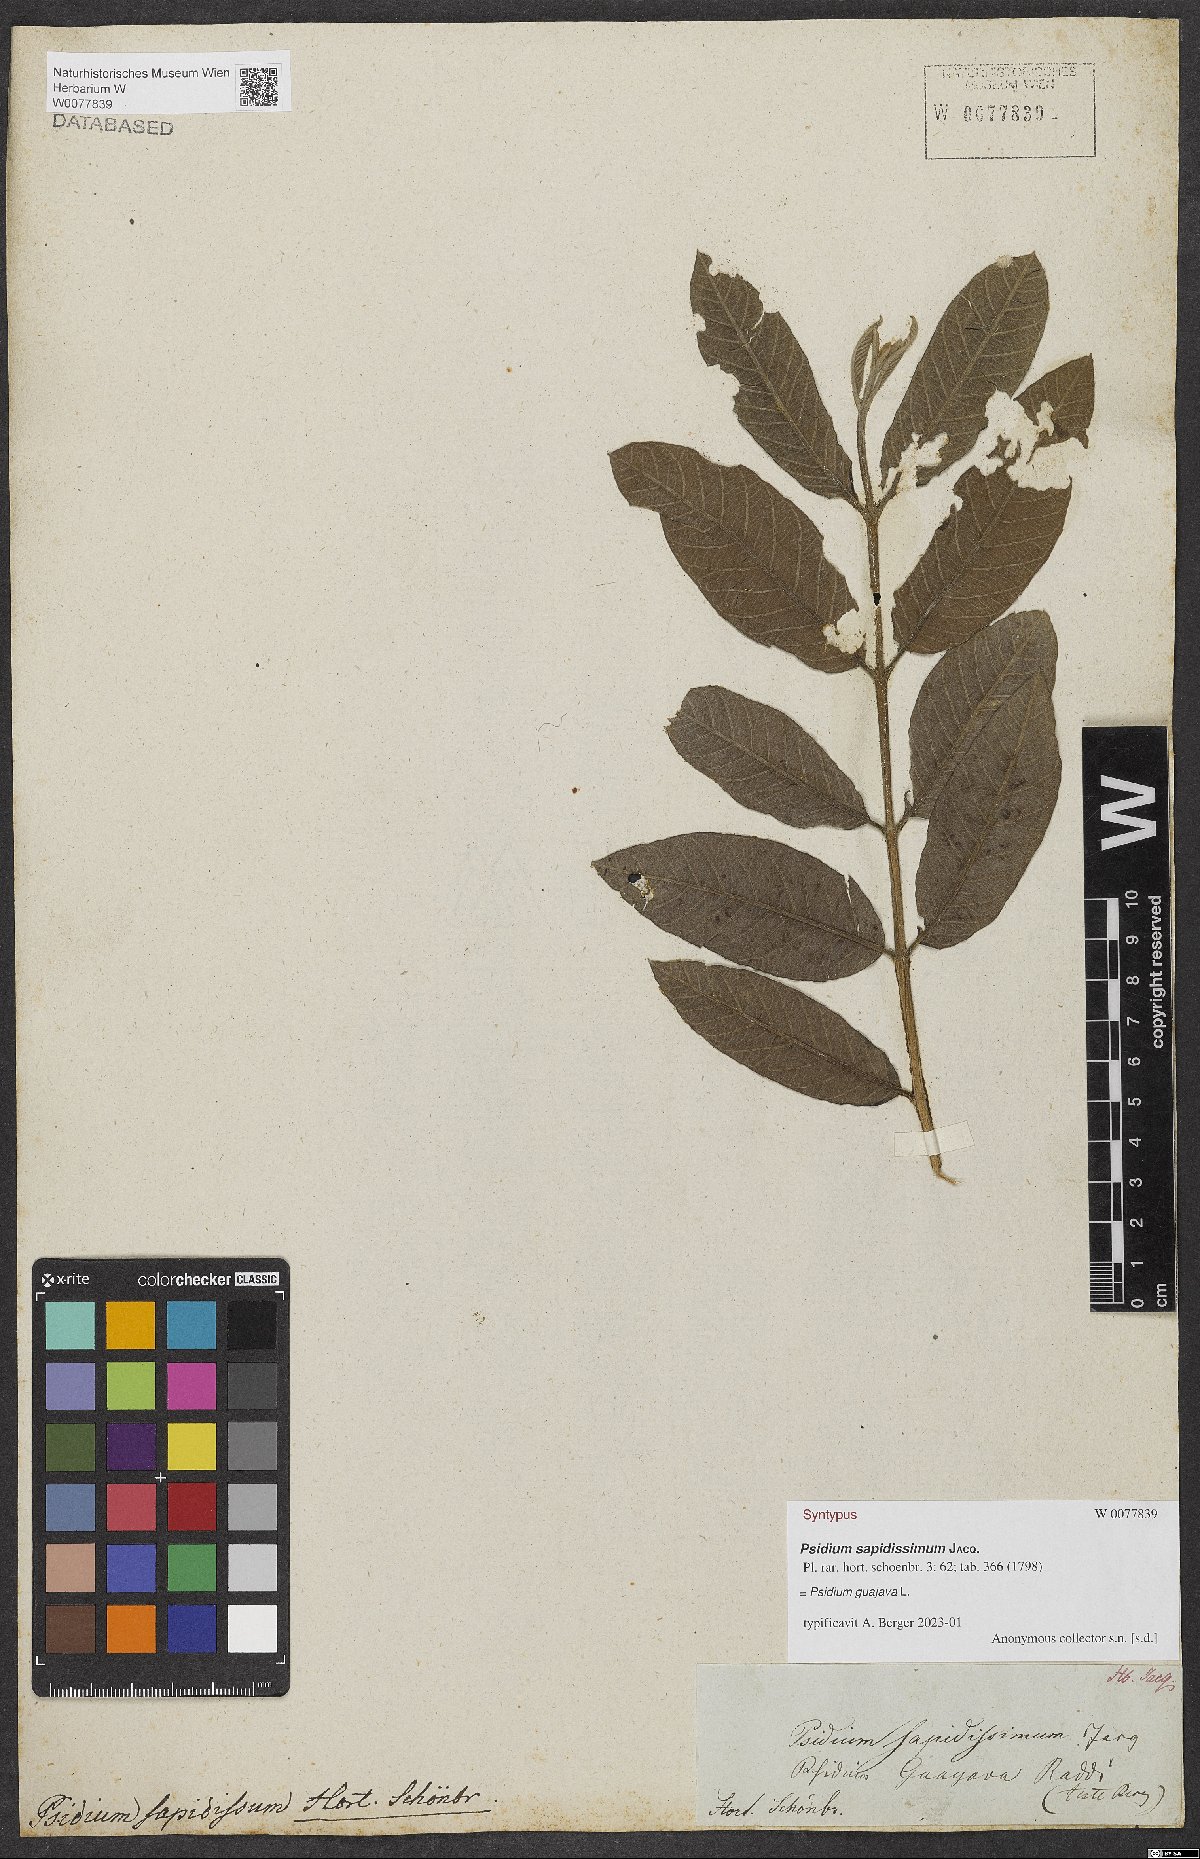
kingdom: Plantae
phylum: Tracheophyta
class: Magnoliopsida
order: Myrtales
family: Myrtaceae
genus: Psidium
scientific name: Psidium guajava
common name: Guava
